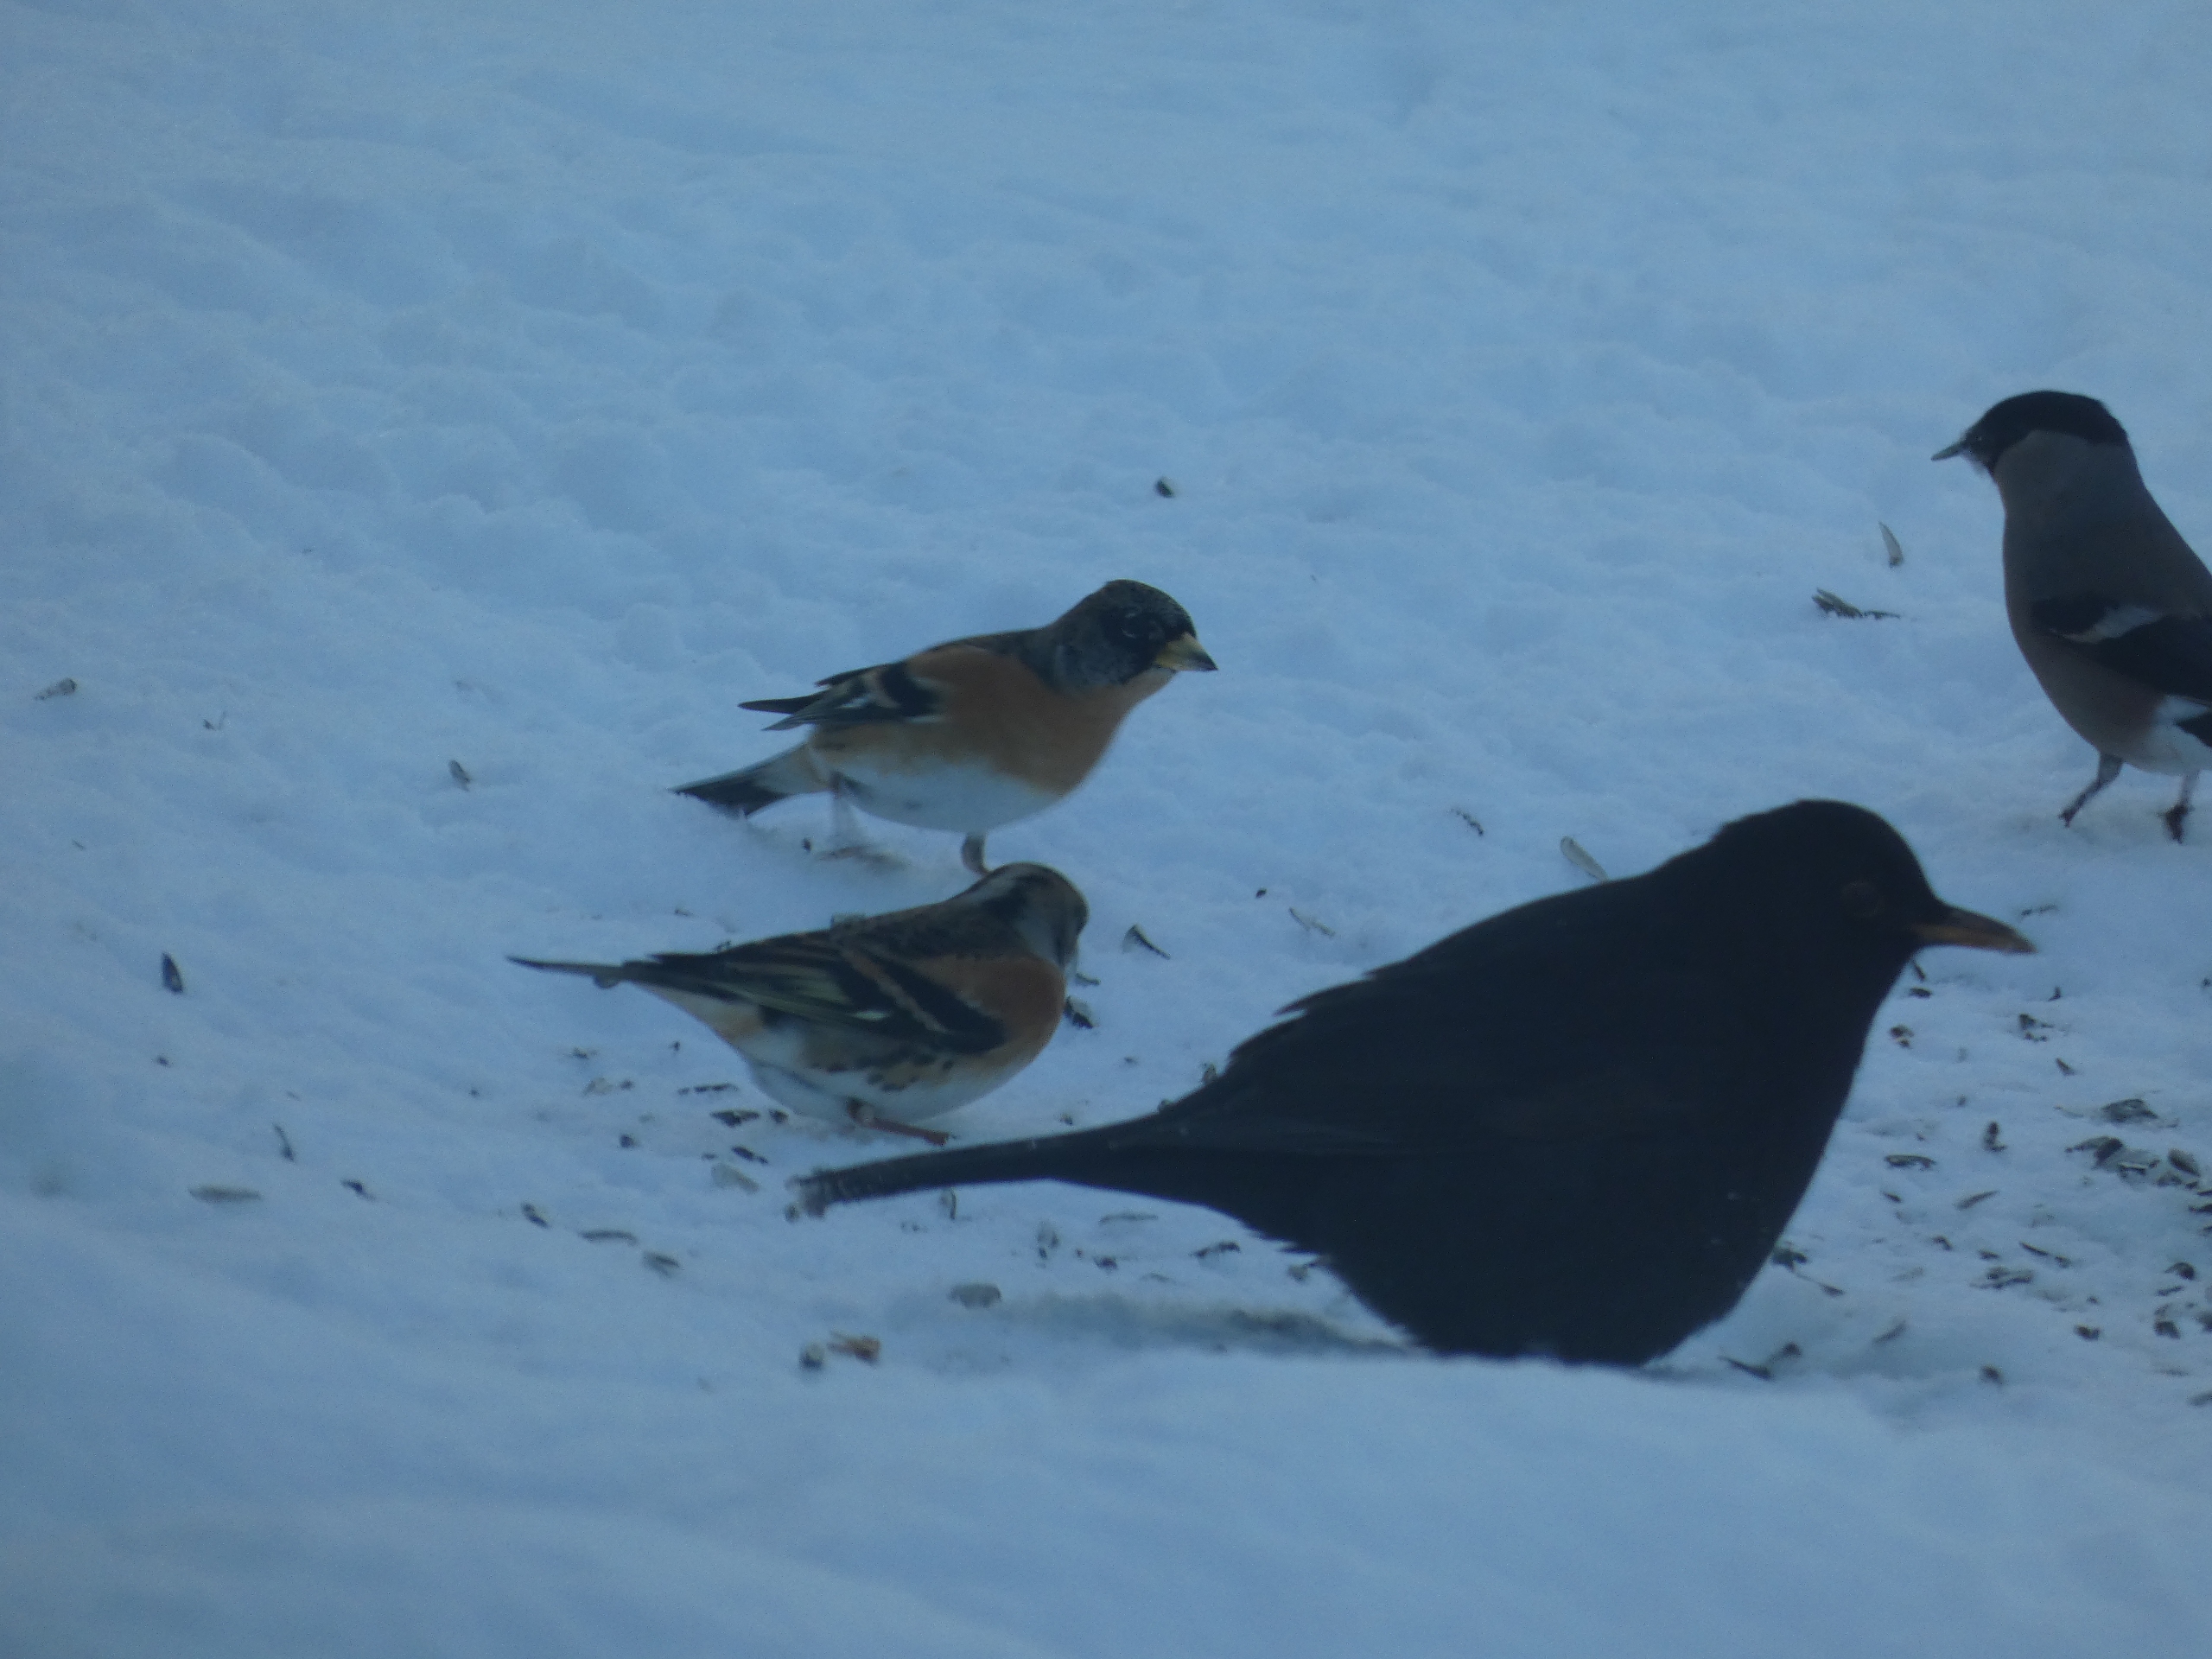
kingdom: Animalia
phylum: Chordata
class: Aves
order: Passeriformes
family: Fringillidae
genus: Fringilla
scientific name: Fringilla montifringilla
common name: Kvækerfinke
